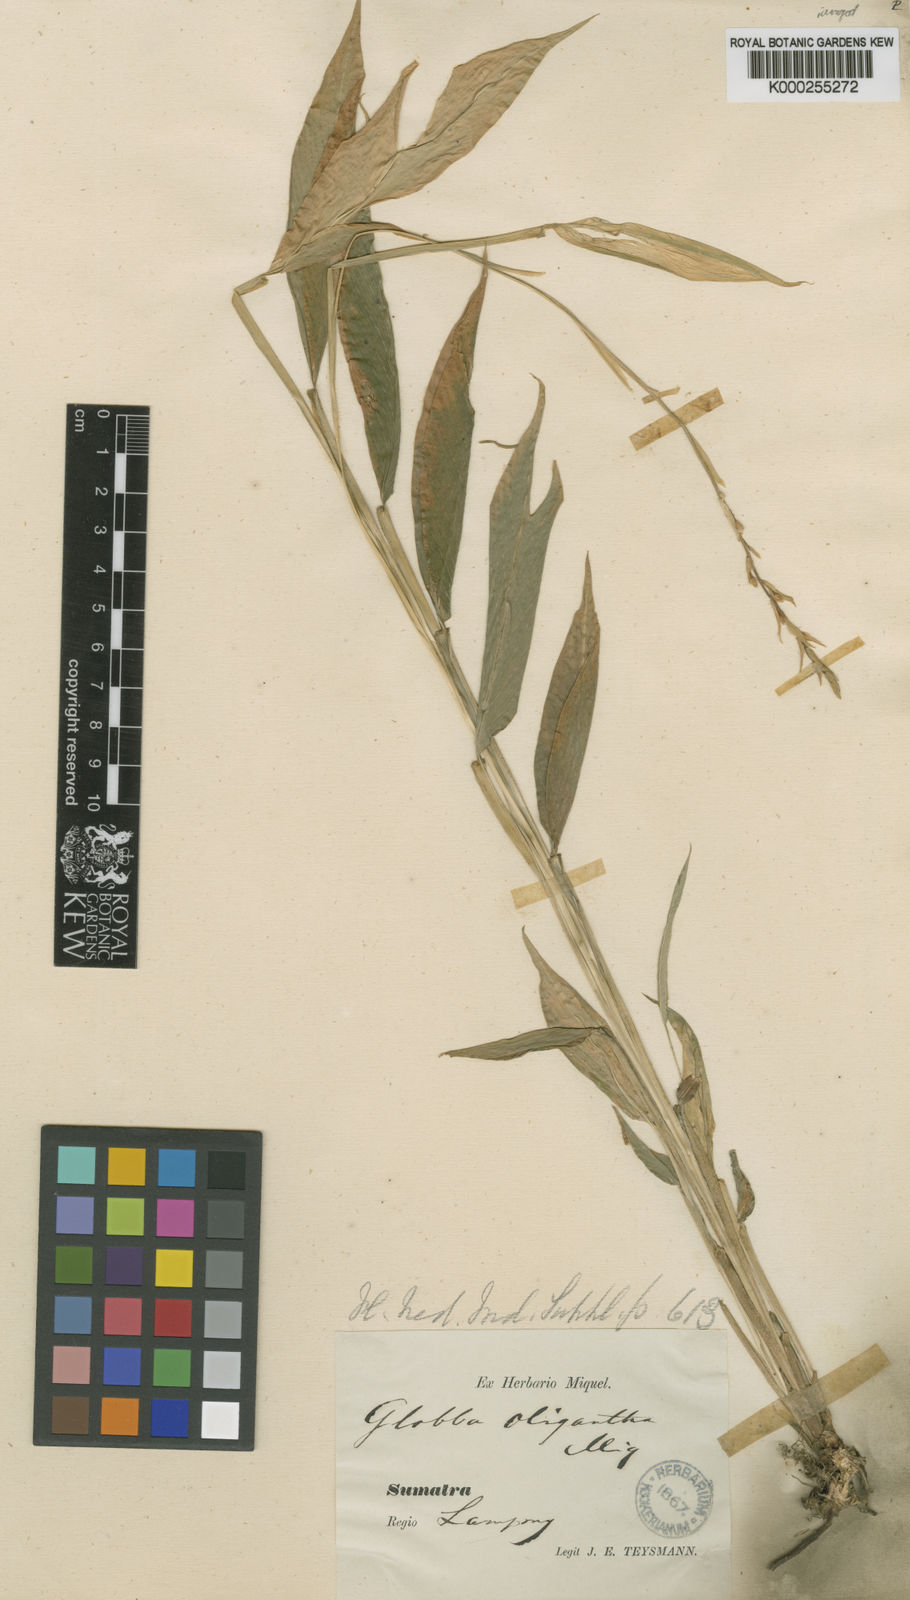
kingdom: Plantae
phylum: Tracheophyta
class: Liliopsida
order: Zingiberales
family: Zingiberaceae
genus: Globba
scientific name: Globba pendula
